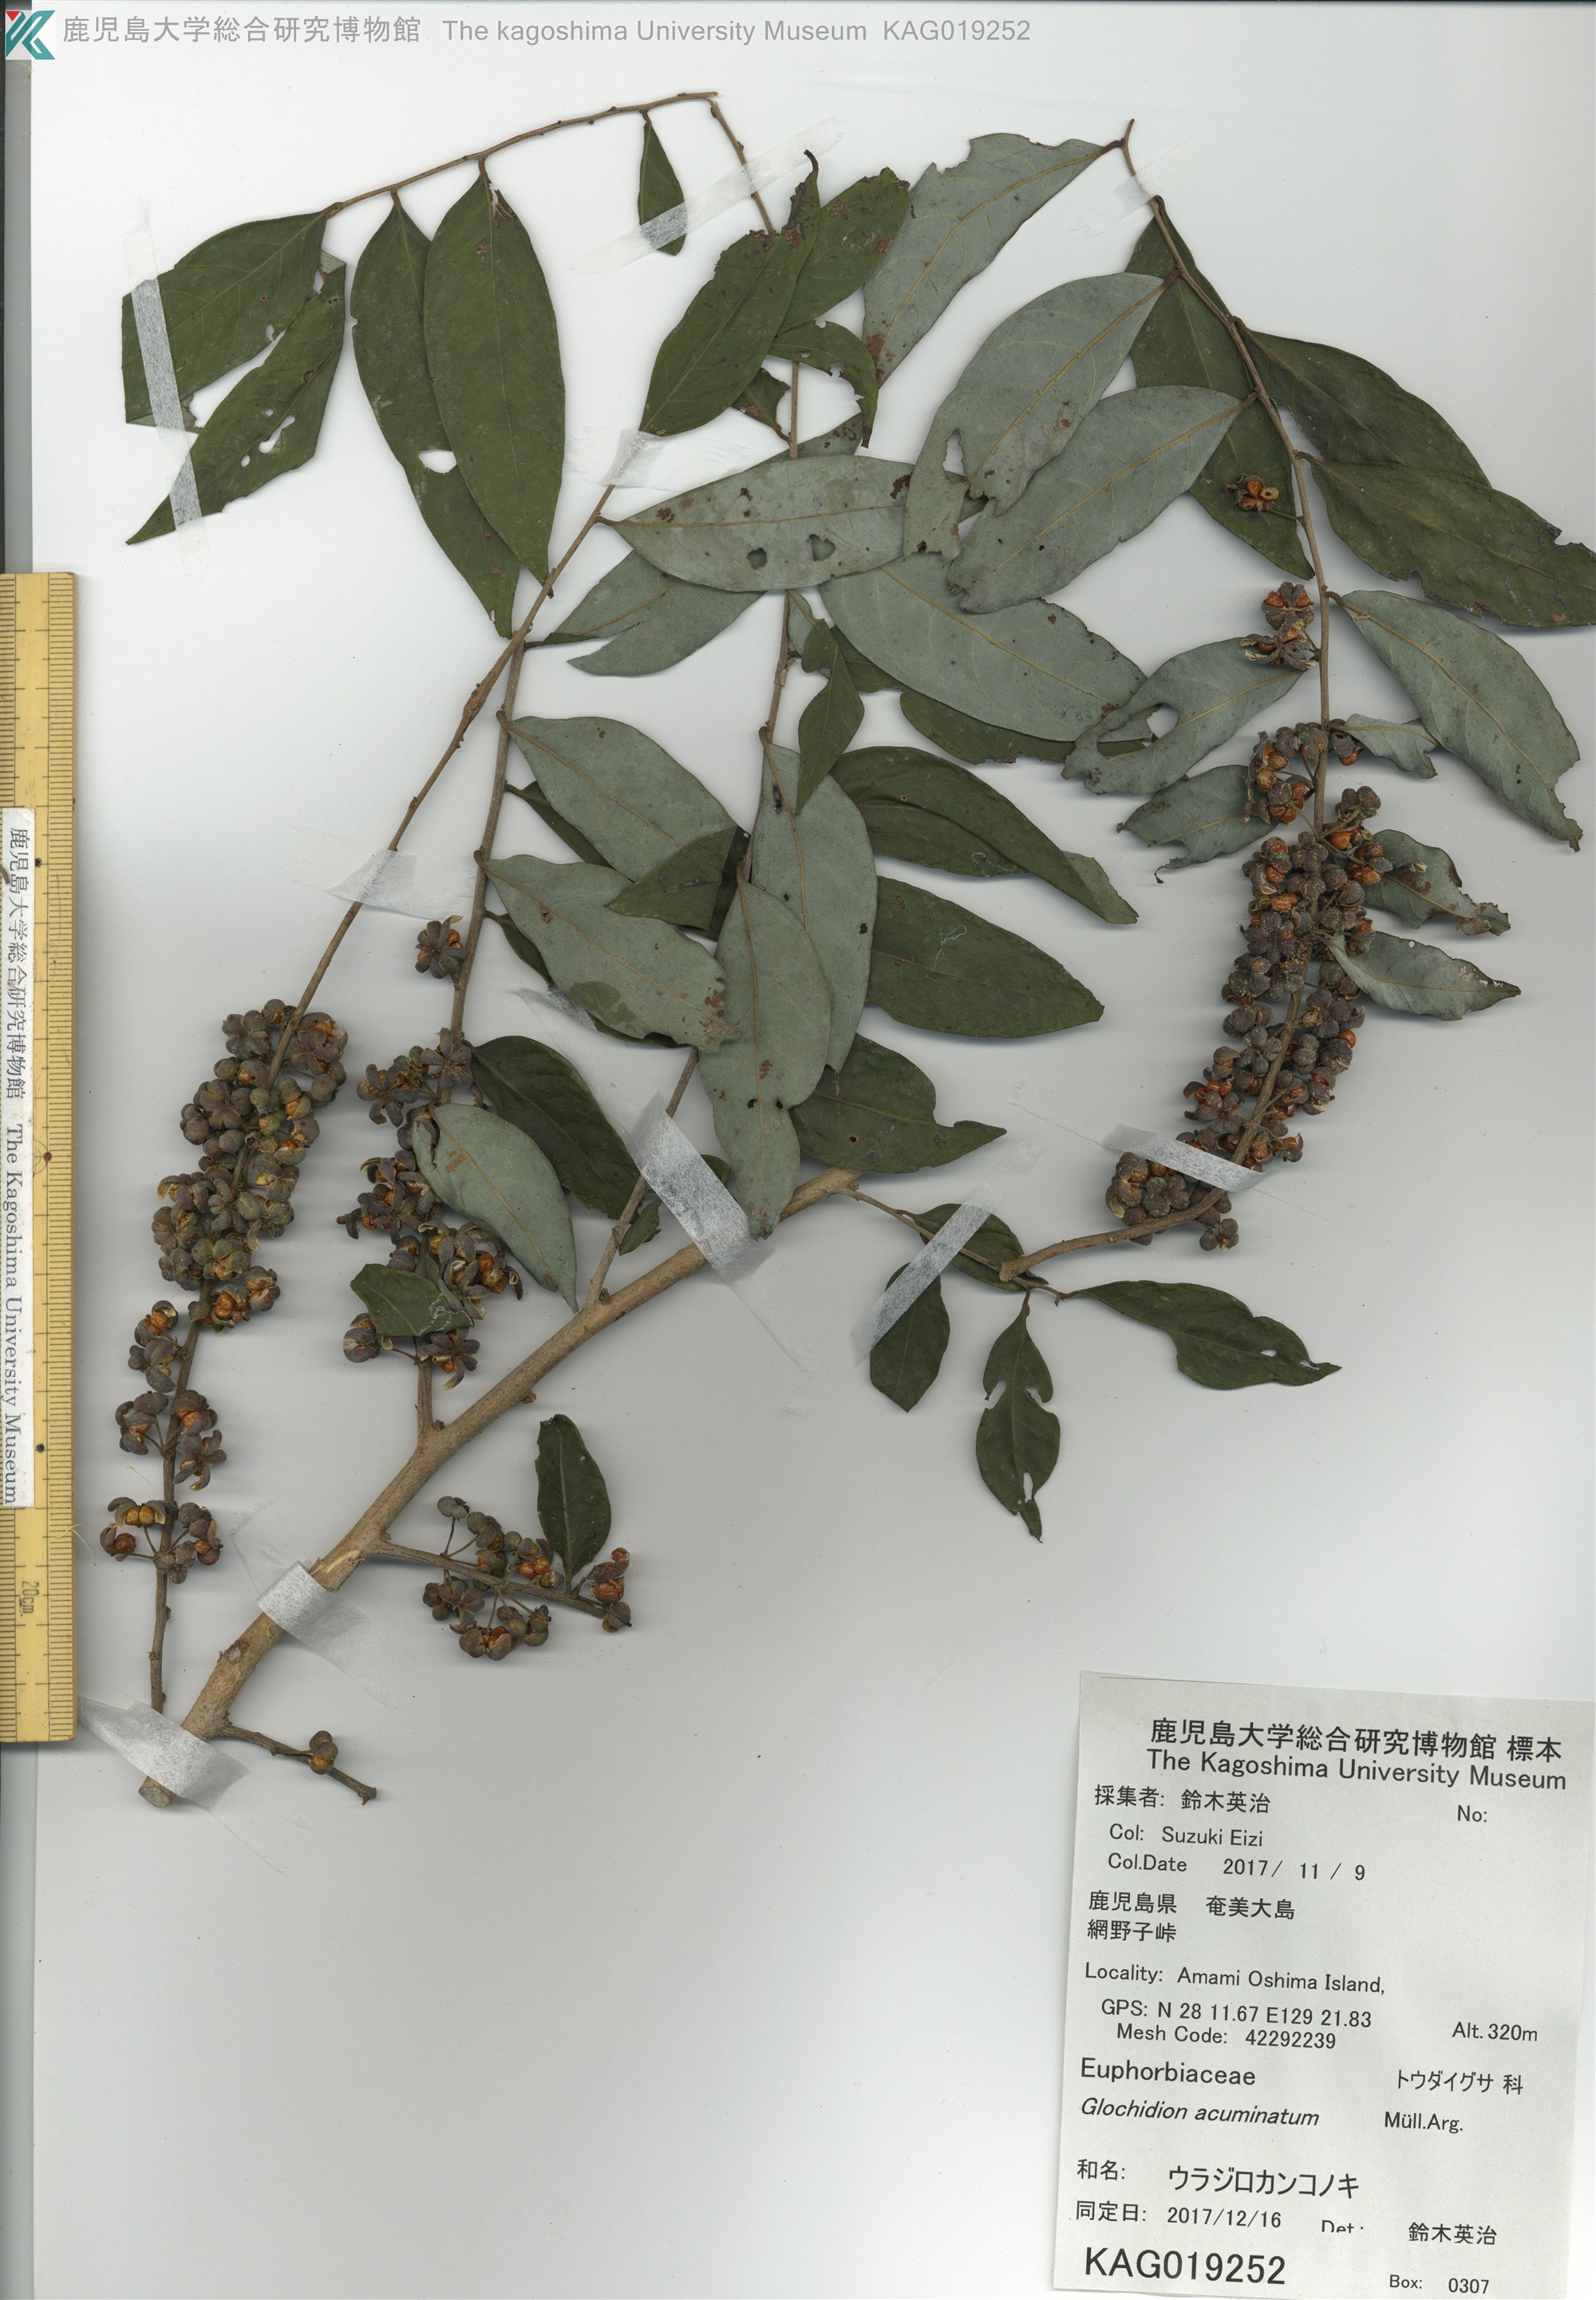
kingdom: Plantae
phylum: Tracheophyta
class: Magnoliopsida
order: Malpighiales
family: Phyllanthaceae
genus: Glochidion
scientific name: Glochidion triandrum
